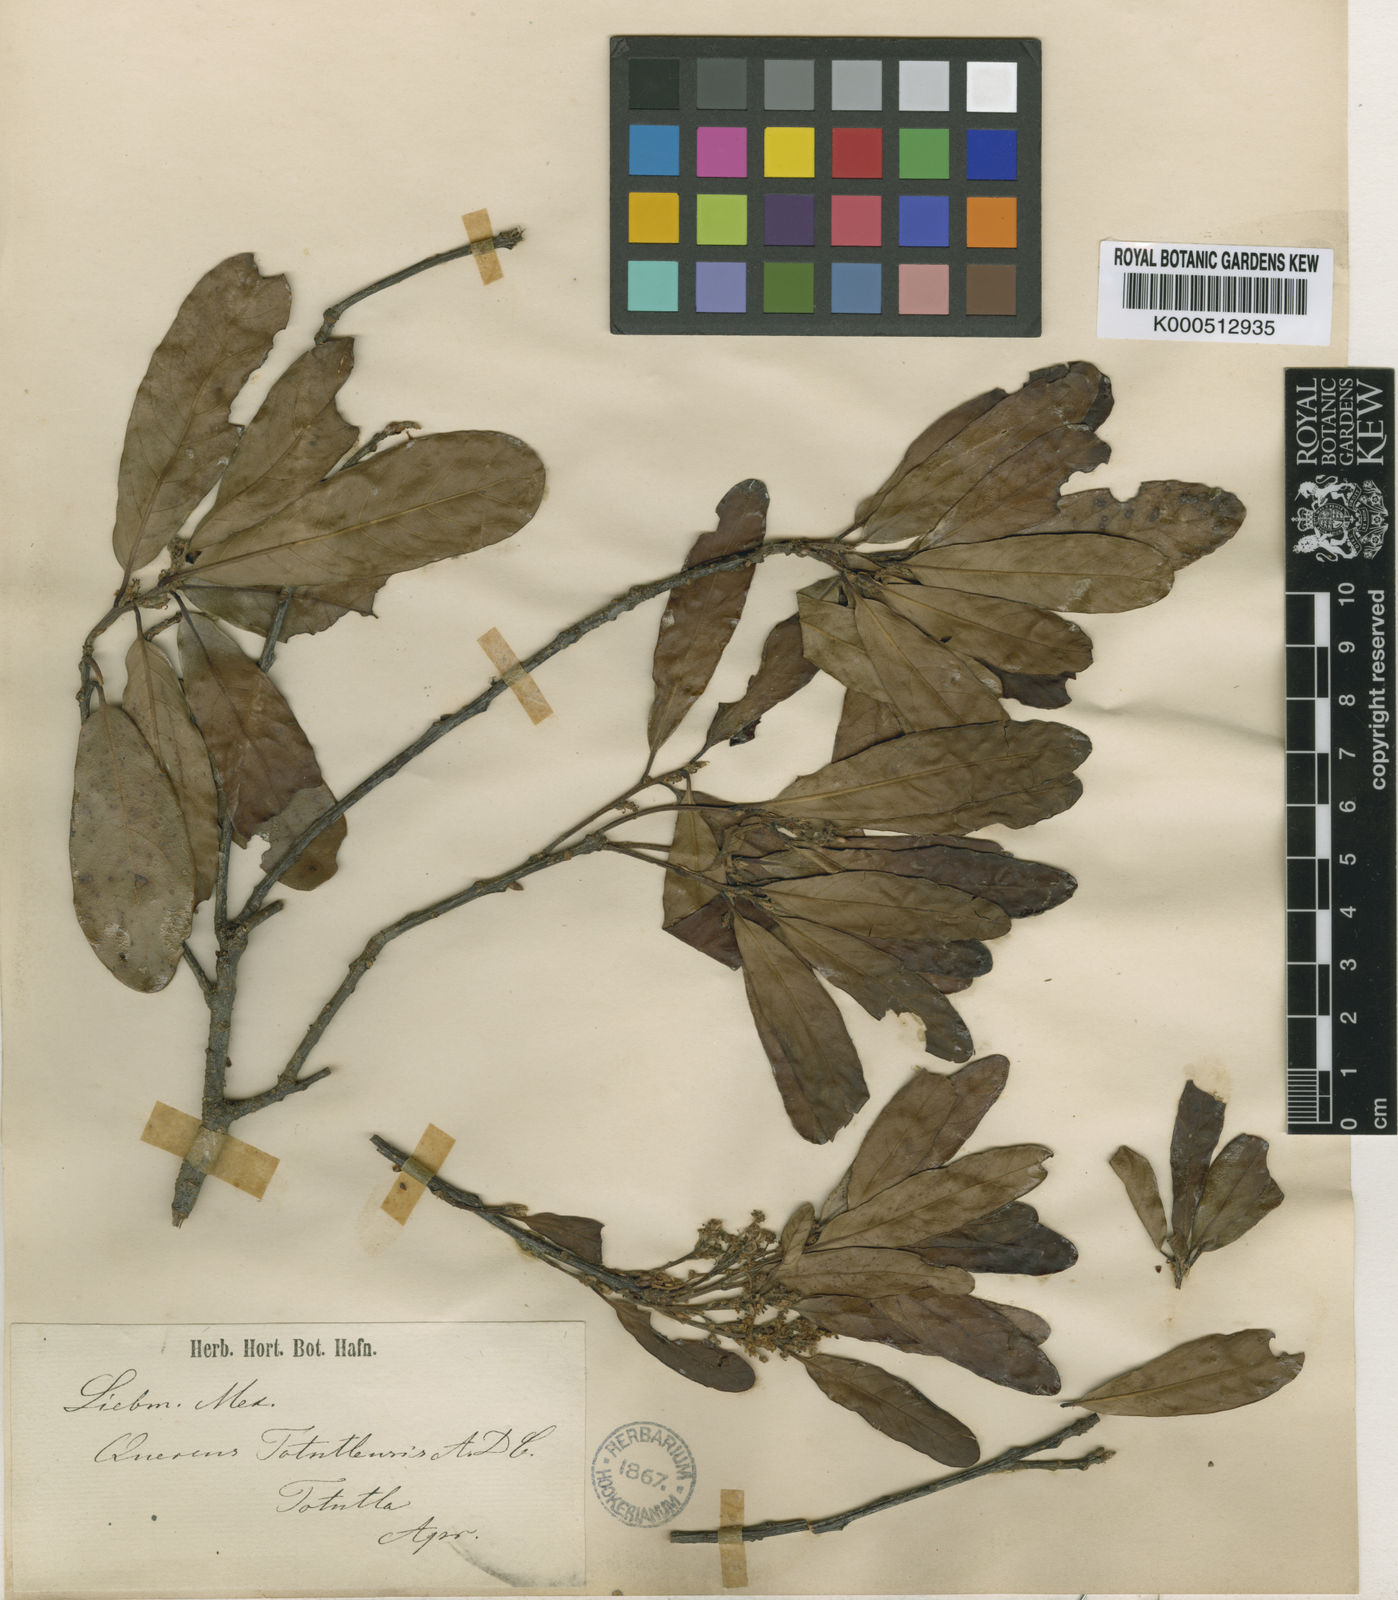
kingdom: Plantae
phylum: Tracheophyta
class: Magnoliopsida
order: Fagales
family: Fagaceae
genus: Quercus
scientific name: Quercus sapotifolia
